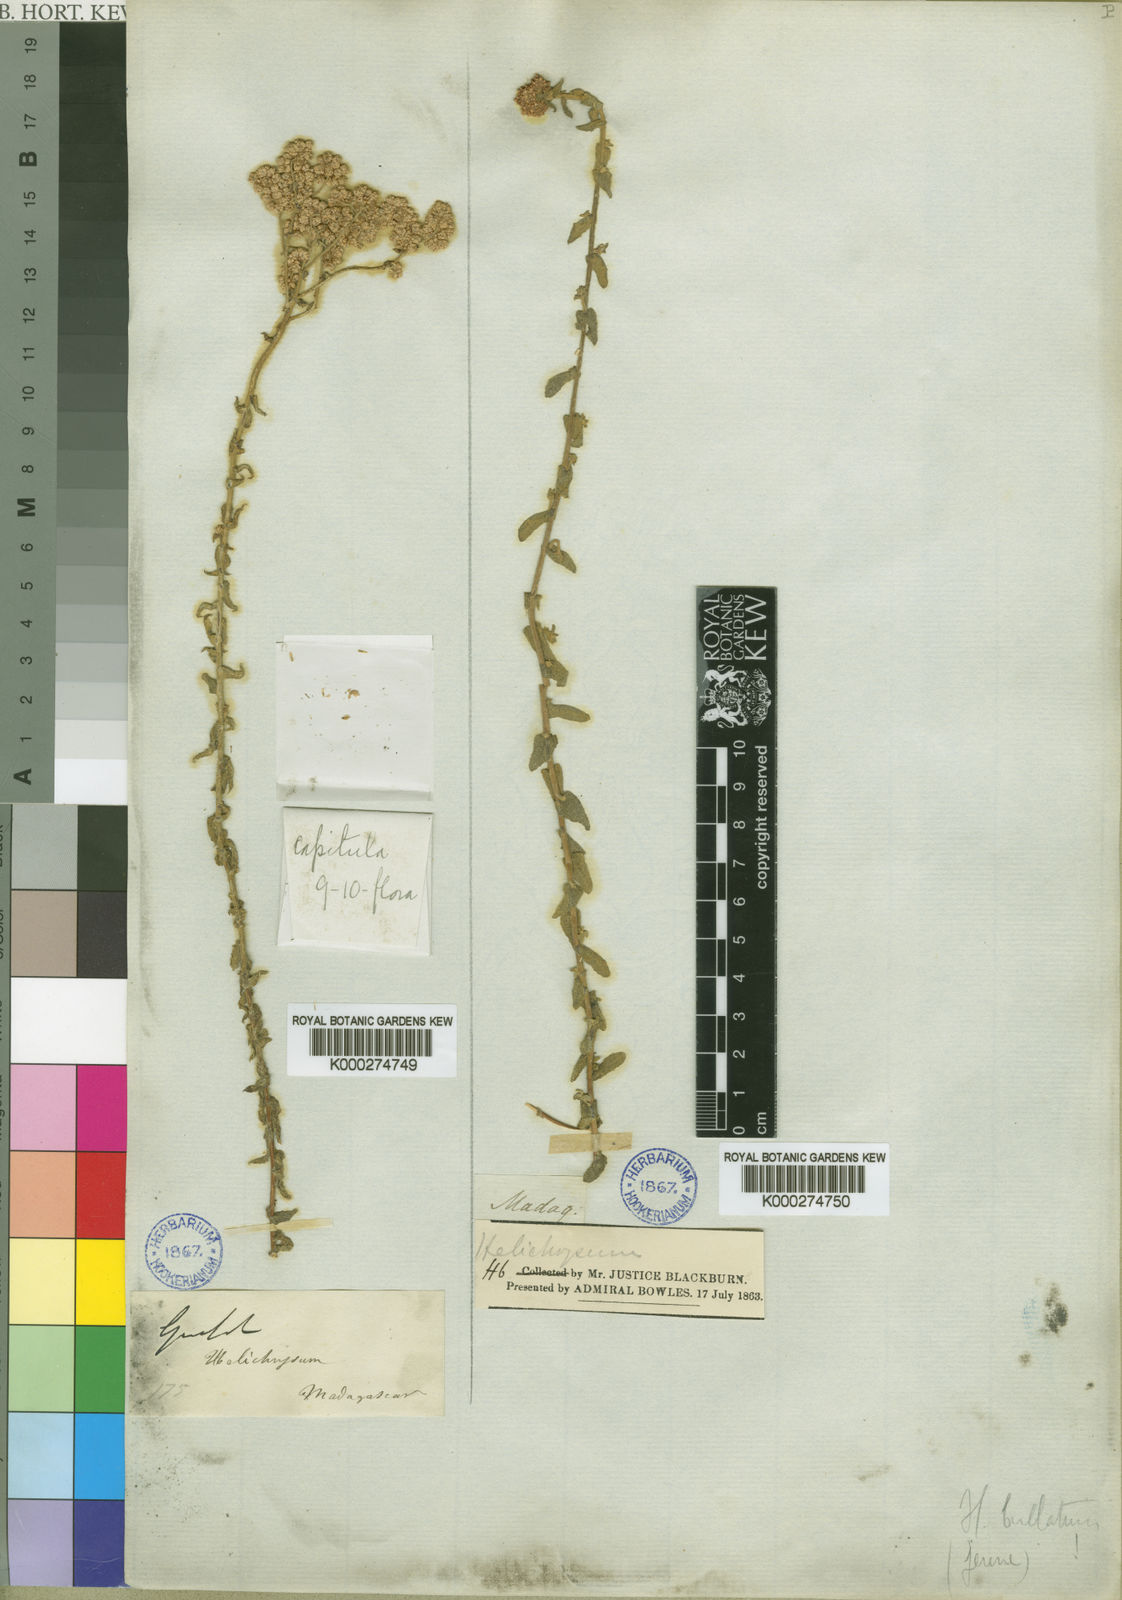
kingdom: Plantae
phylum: Tracheophyta
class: Magnoliopsida
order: Asterales
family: Asteraceae
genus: Helichrysum
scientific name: Helichrysum microcephalum
